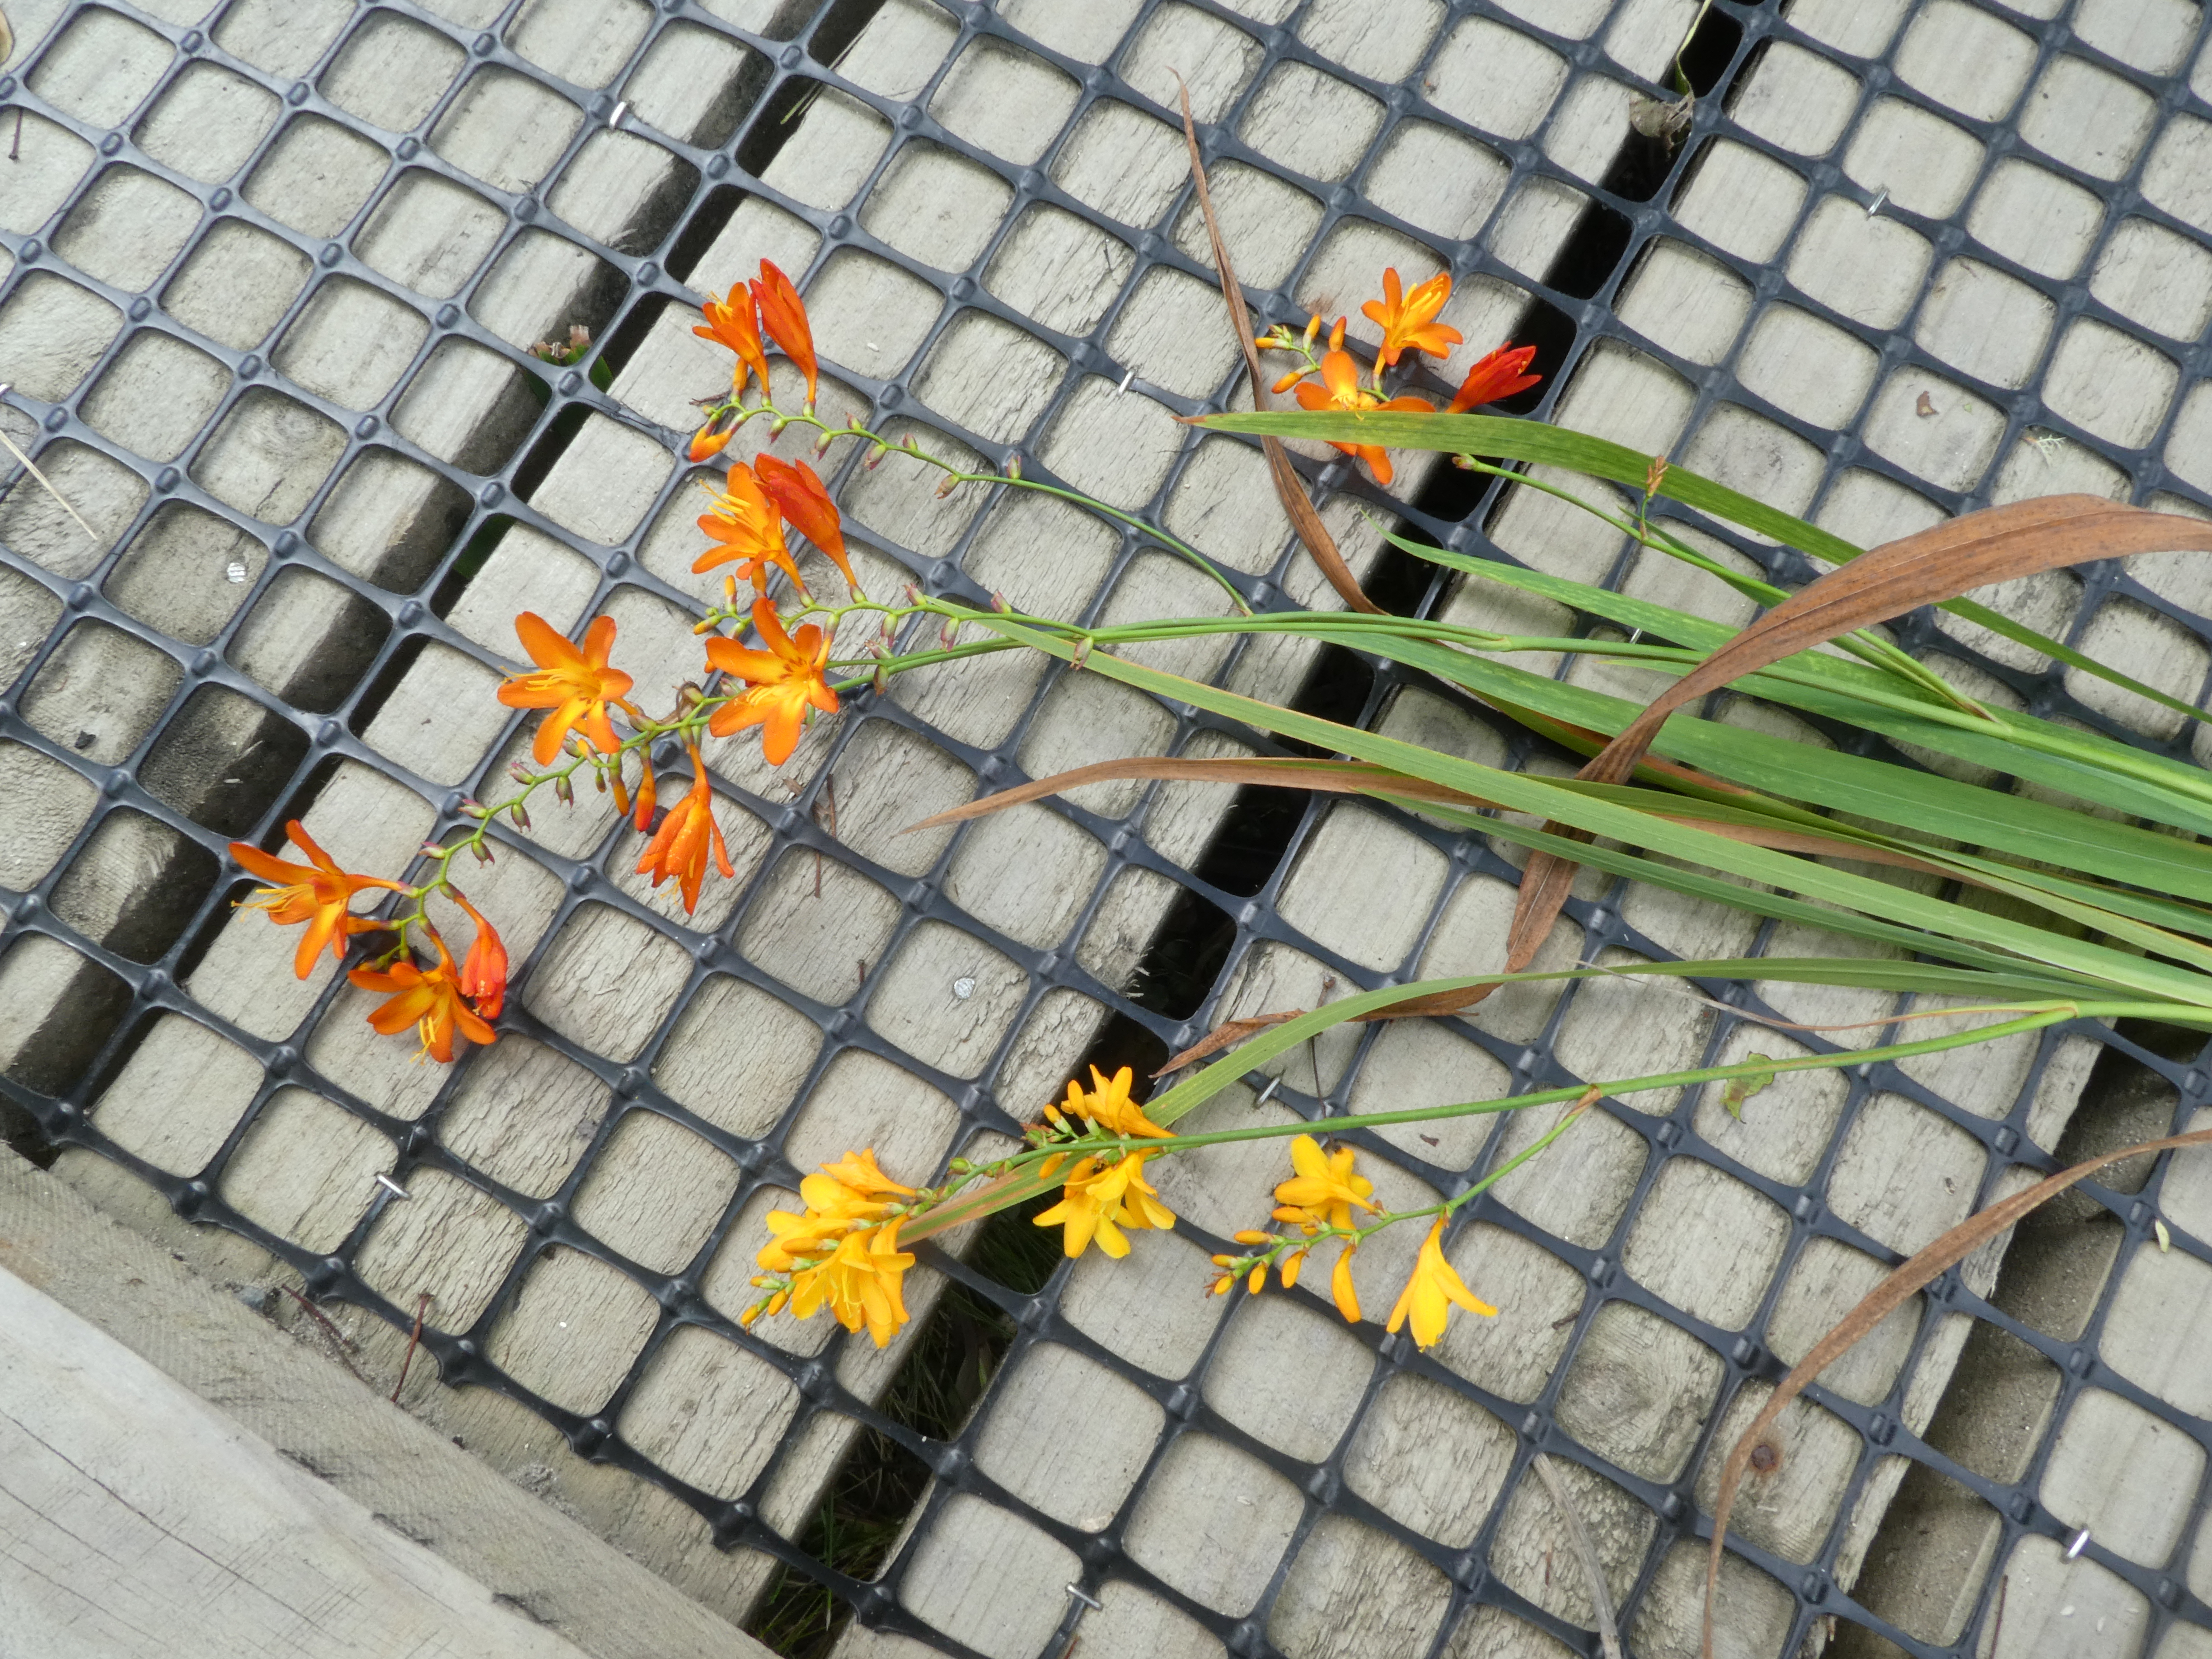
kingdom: Plantae
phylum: Tracheophyta
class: Liliopsida
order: Asparagales
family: Iridaceae
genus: Crocosmia
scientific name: Crocosmia crocosmiiflora
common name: Montbretia
